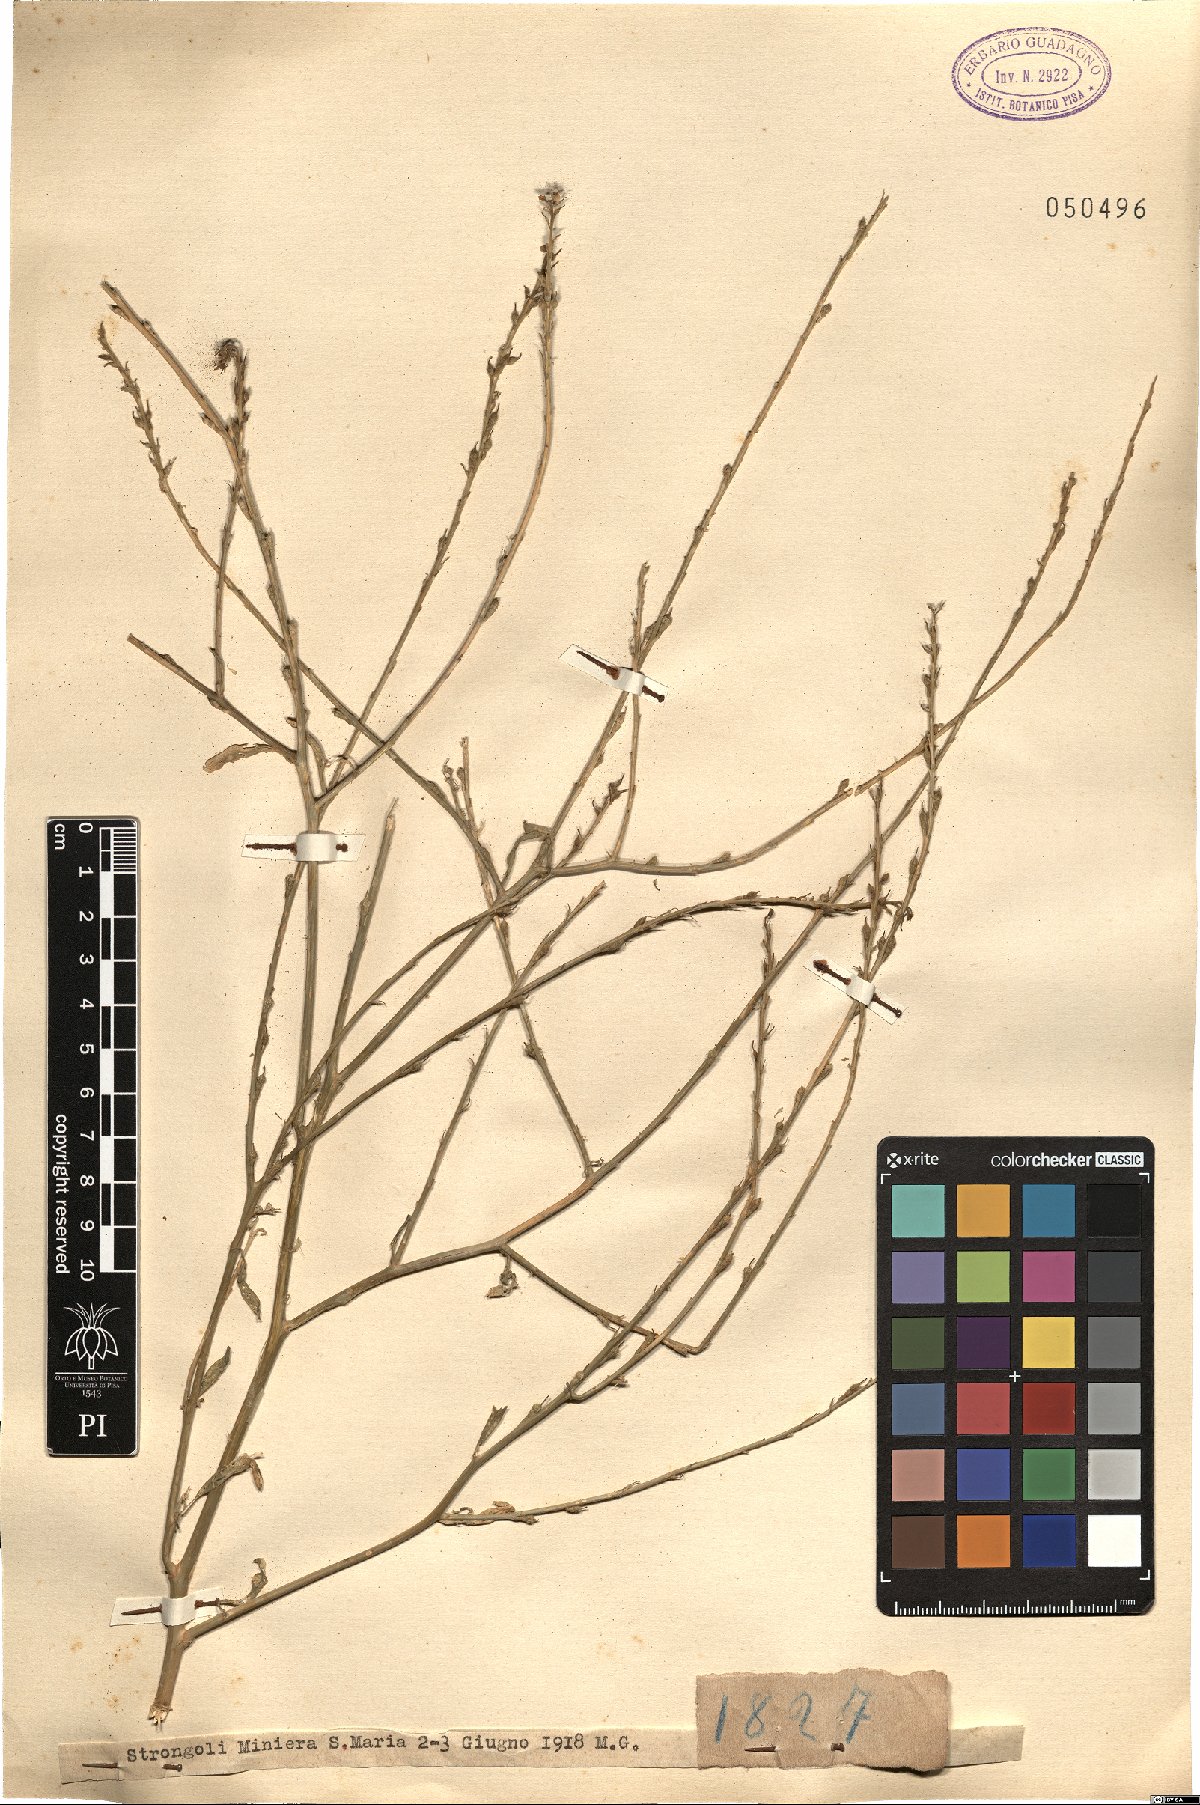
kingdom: Plantae
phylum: Tracheophyta
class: Magnoliopsida
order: Brassicales
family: Brassicaceae
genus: Rapistrum
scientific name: Rapistrum
